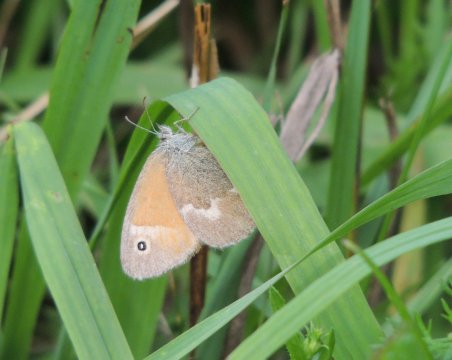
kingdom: Animalia
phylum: Arthropoda
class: Insecta
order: Lepidoptera
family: Nymphalidae
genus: Coenonympha
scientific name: Coenonympha tullia
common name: Large Heath
